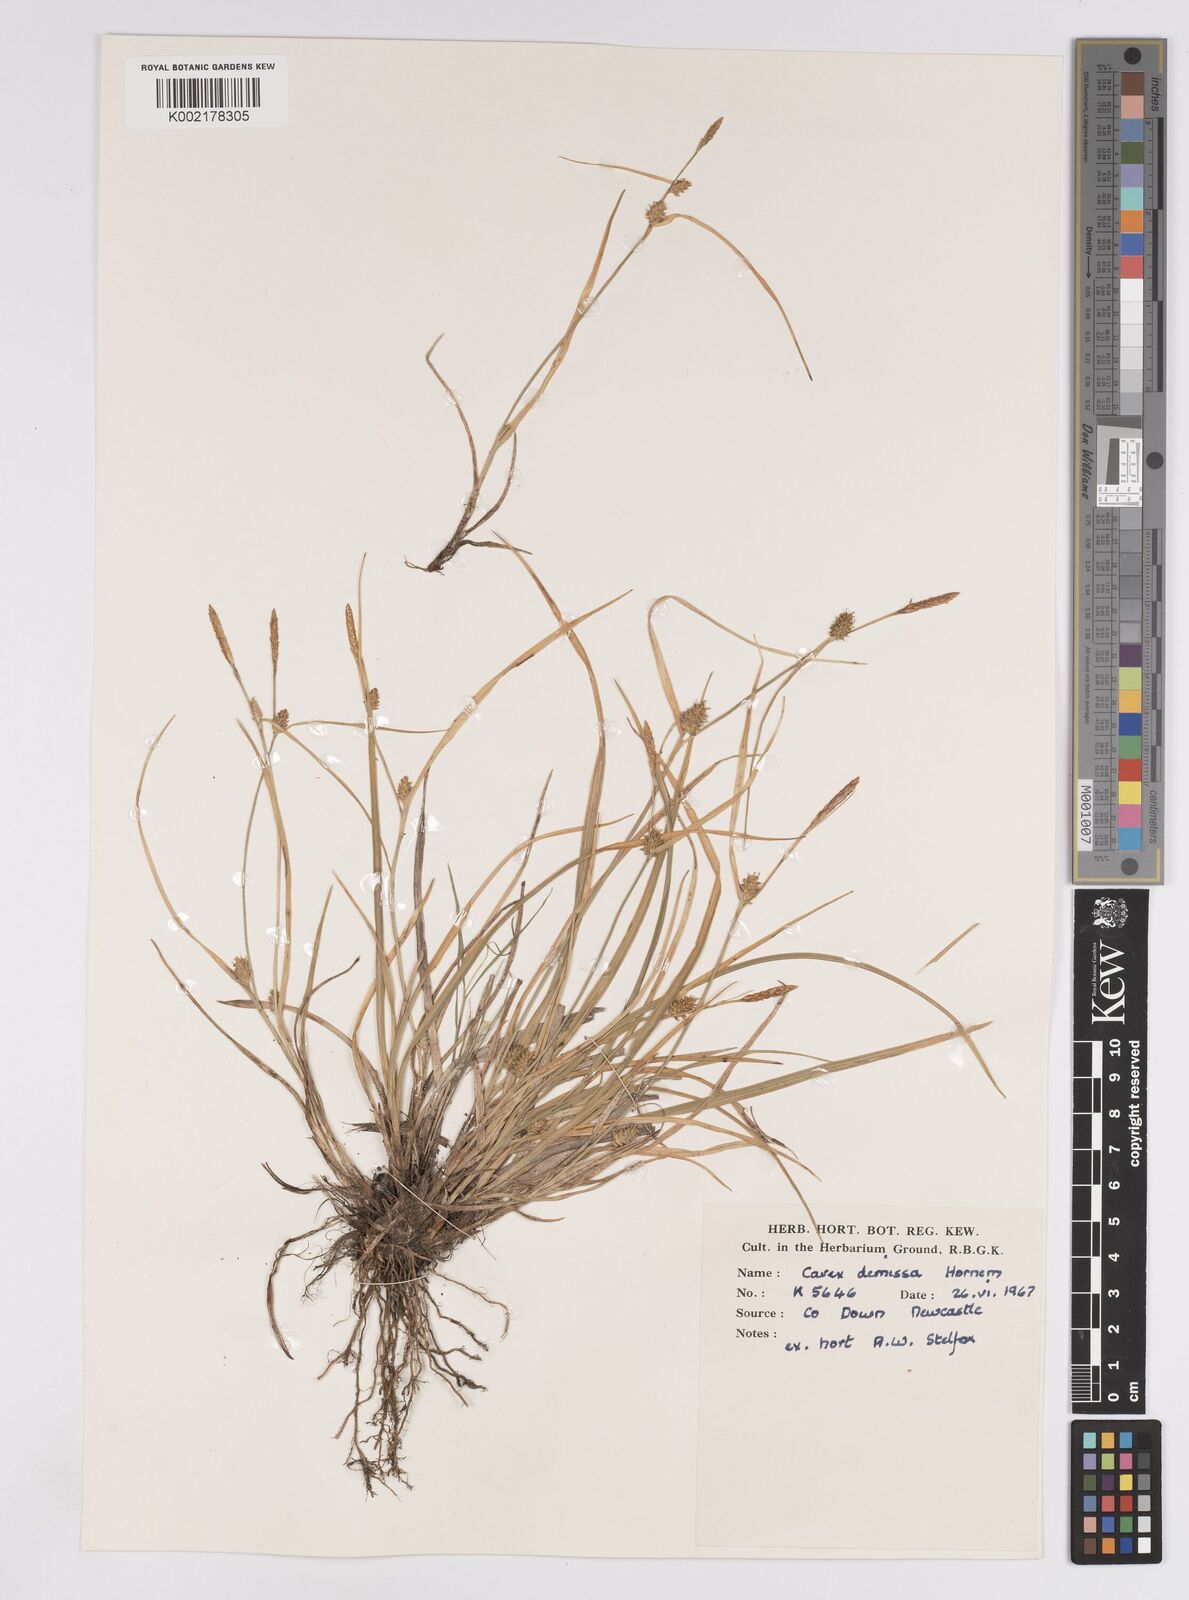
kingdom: Plantae
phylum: Tracheophyta
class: Liliopsida
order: Poales
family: Cyperaceae
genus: Carex
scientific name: Carex demissa
